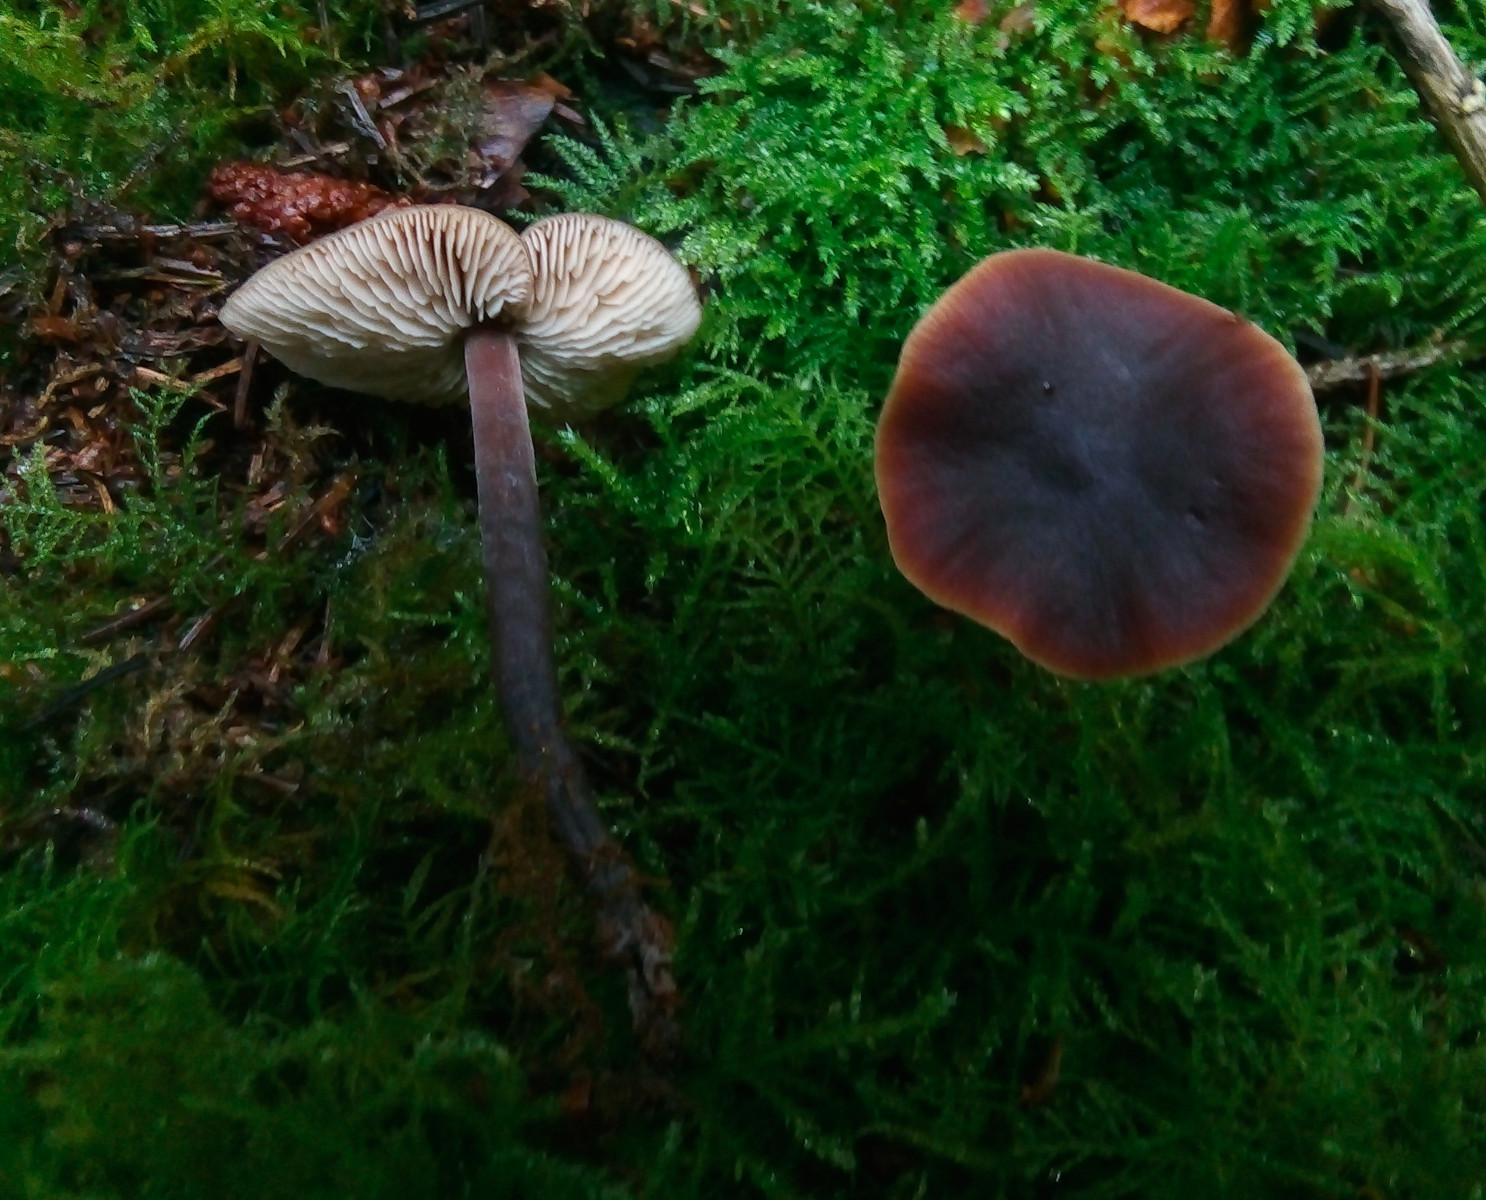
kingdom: Fungi
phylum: Basidiomycota
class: Agaricomycetes
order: Agaricales
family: Macrocystidiaceae
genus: Macrocystidia
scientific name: Macrocystidia cucumis
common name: agurkehat
